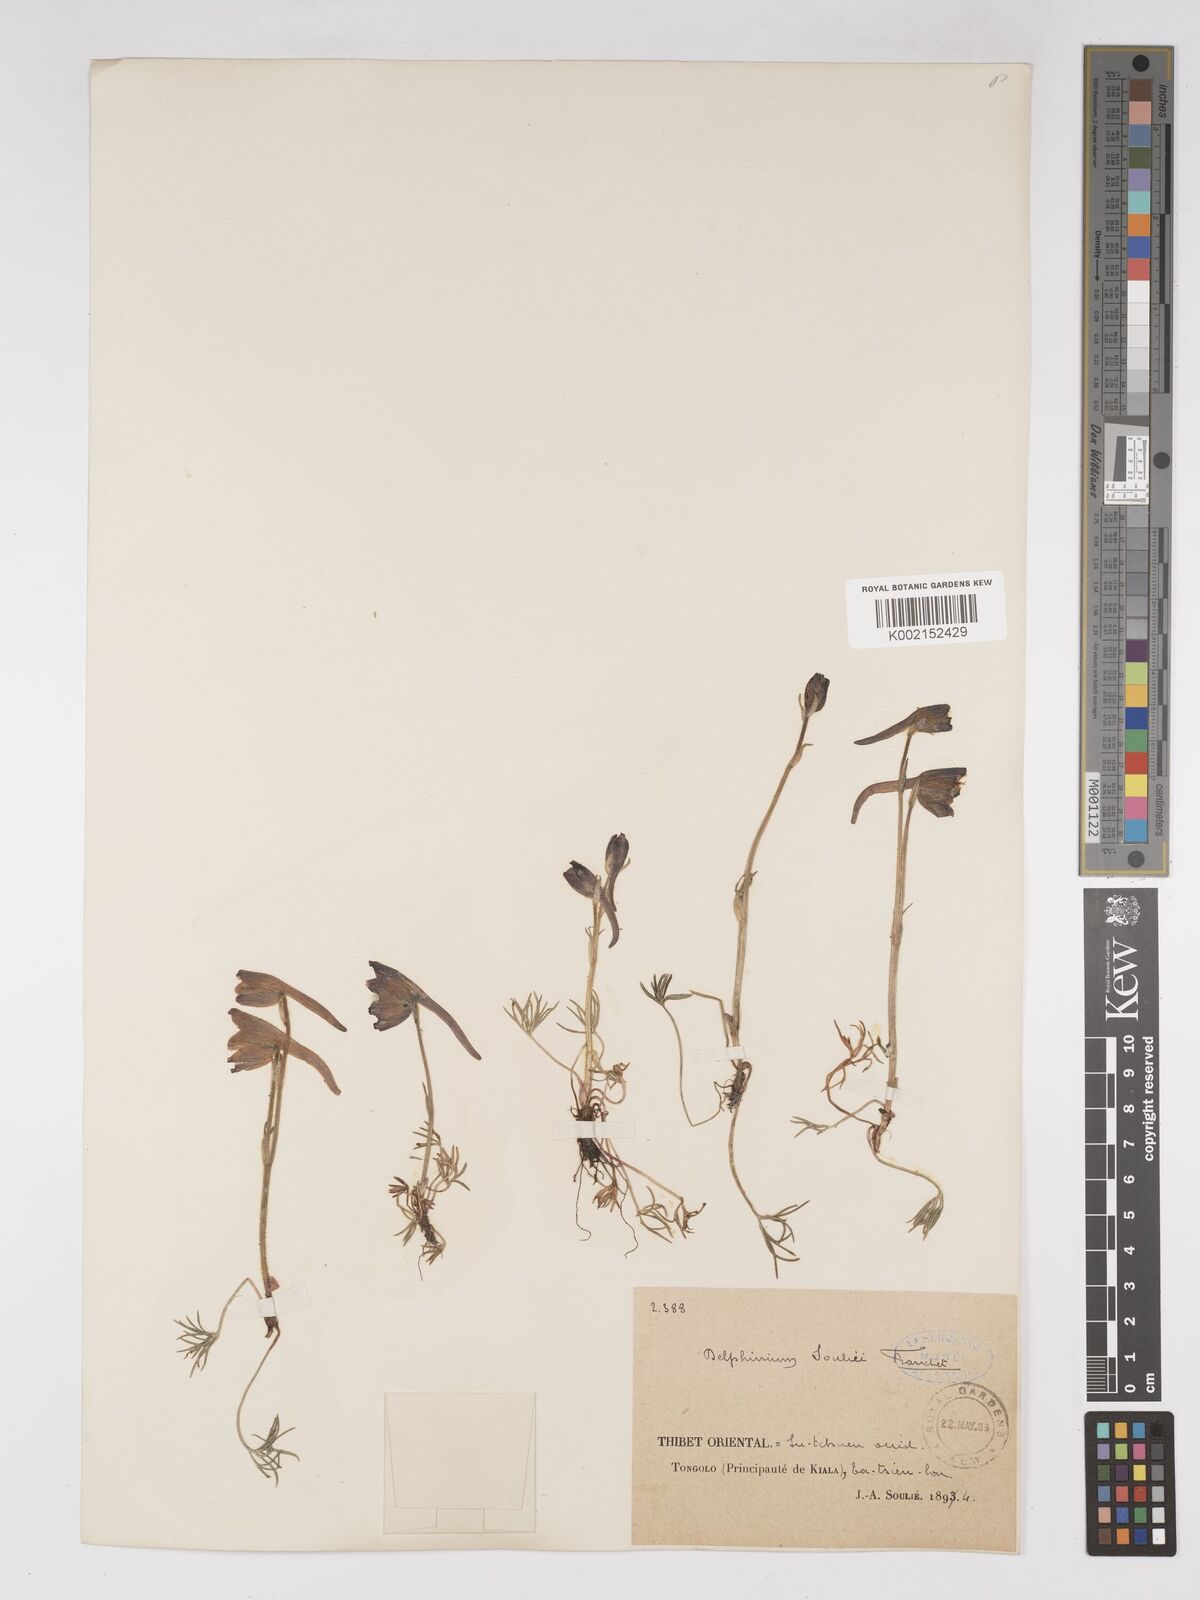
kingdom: Plantae
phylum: Tracheophyta
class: Magnoliopsida
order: Ranunculales
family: Ranunculaceae
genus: Delphinium
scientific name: Delphinium souliei
